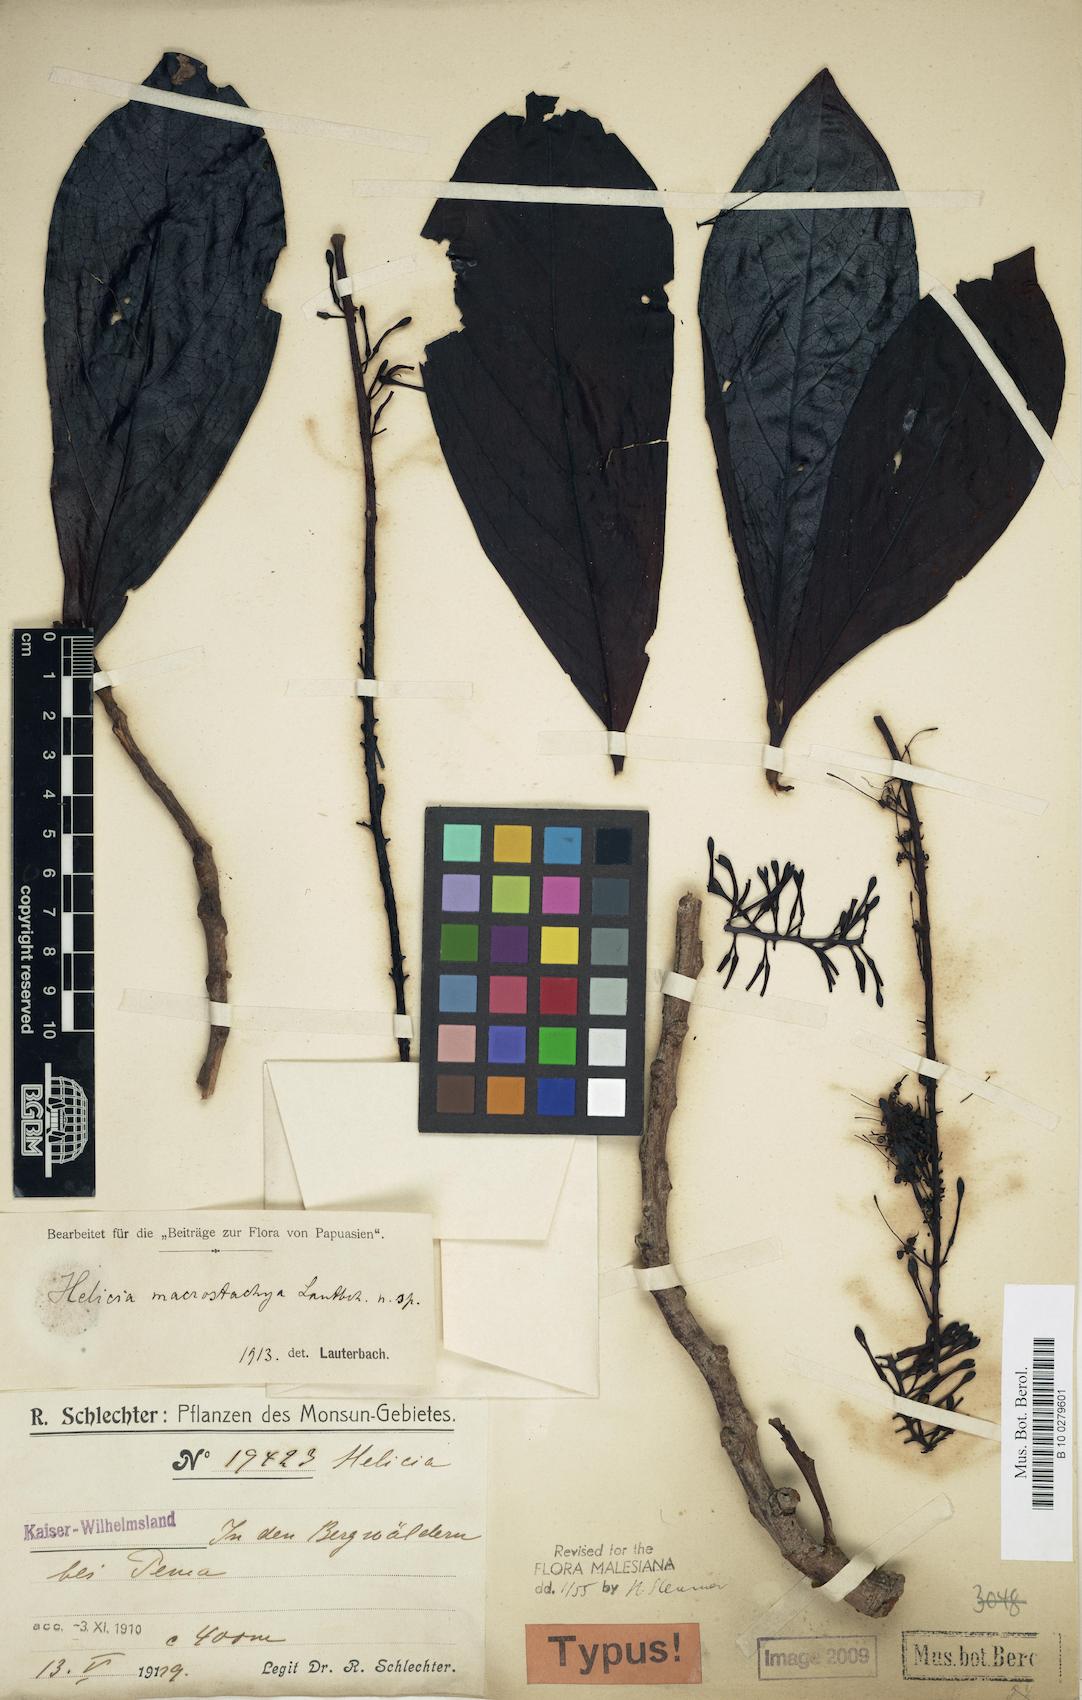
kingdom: Plantae
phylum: Tracheophyta
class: Magnoliopsida
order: Proteales
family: Proteaceae
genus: Helicia
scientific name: Helicia macrostachya
